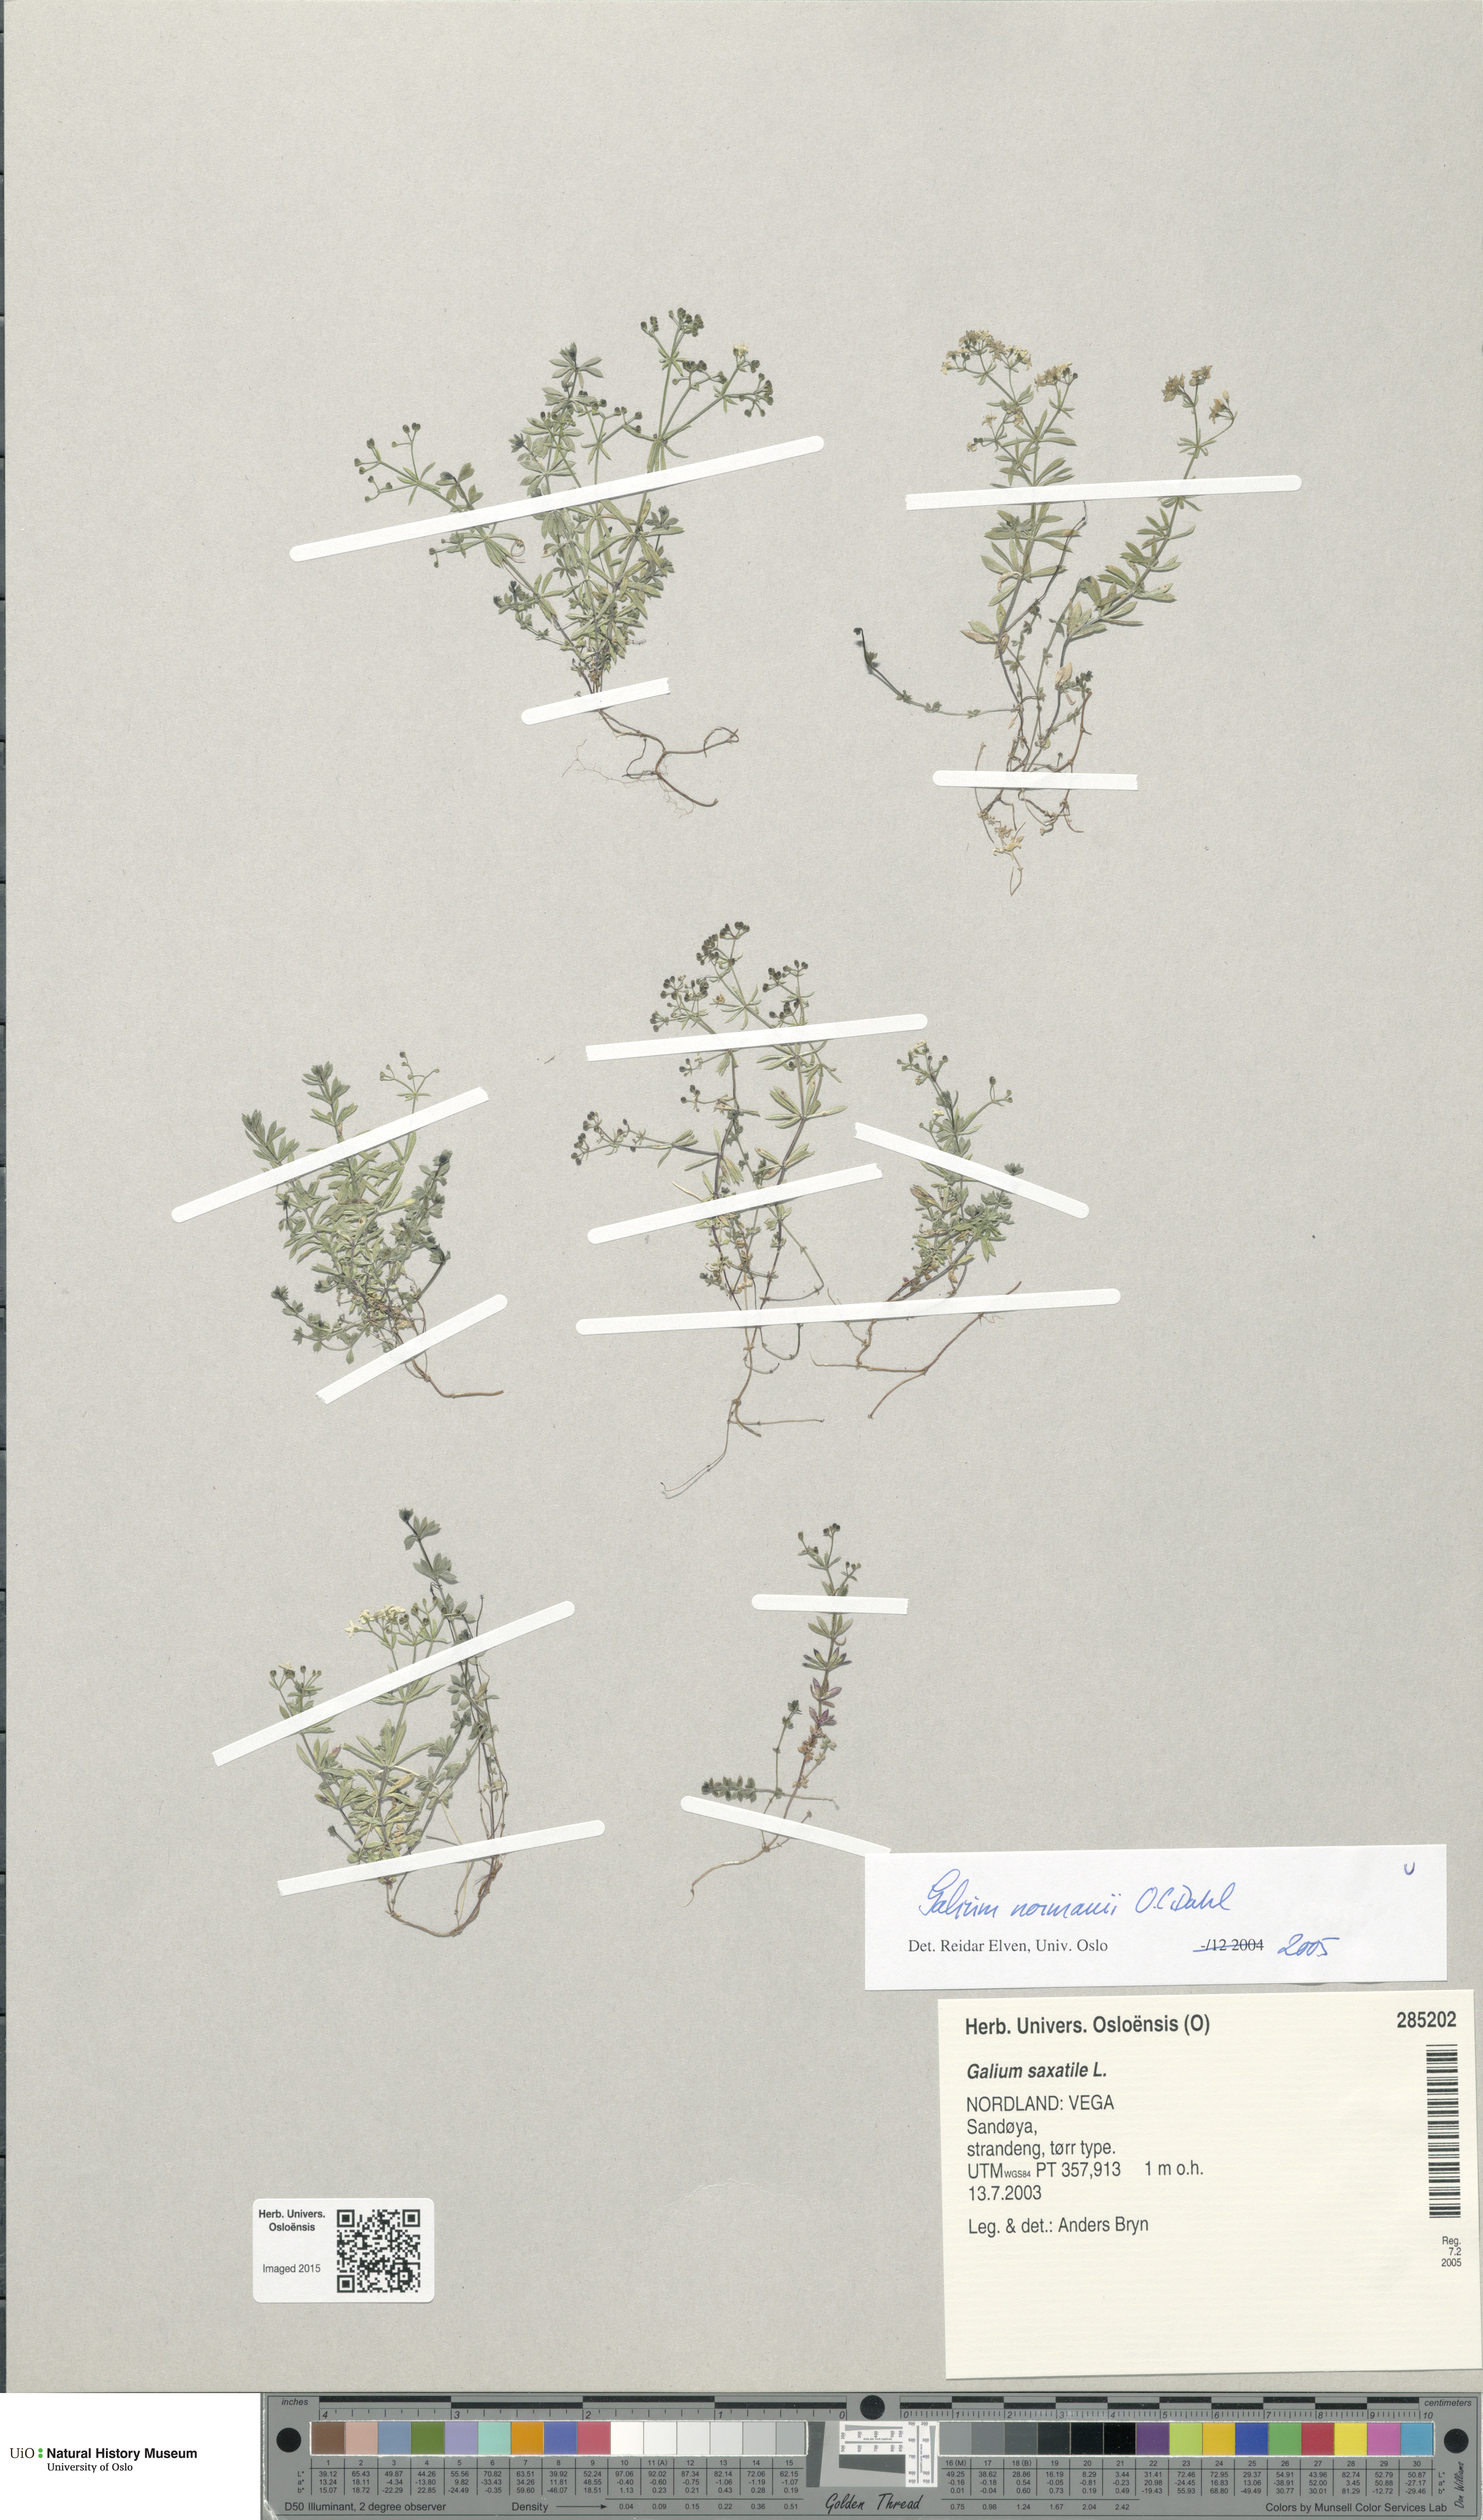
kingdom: Plantae
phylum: Tracheophyta
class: Magnoliopsida
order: Gentianales
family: Rubiaceae
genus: Galium
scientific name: Galium normanii
